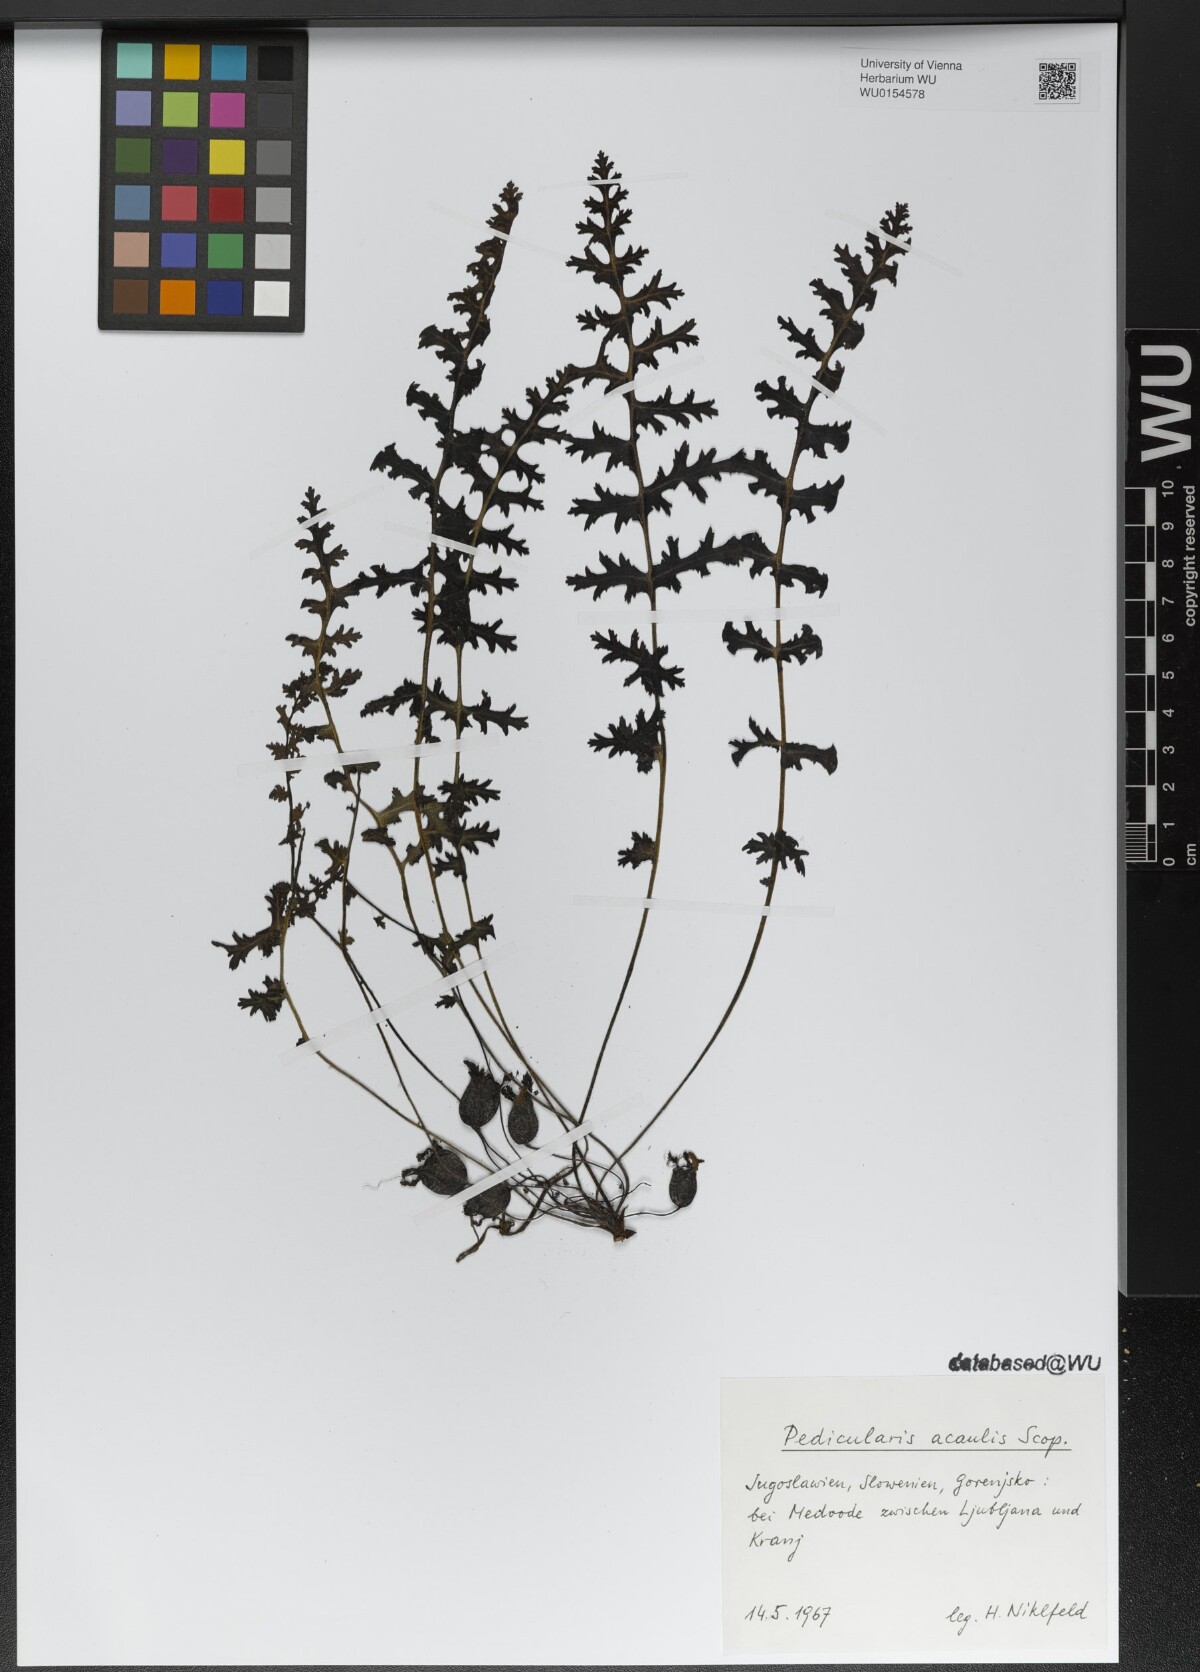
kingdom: Plantae
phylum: Tracheophyta
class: Magnoliopsida
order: Lamiales
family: Orobanchaceae
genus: Pedicularis
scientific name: Pedicularis acaulis
